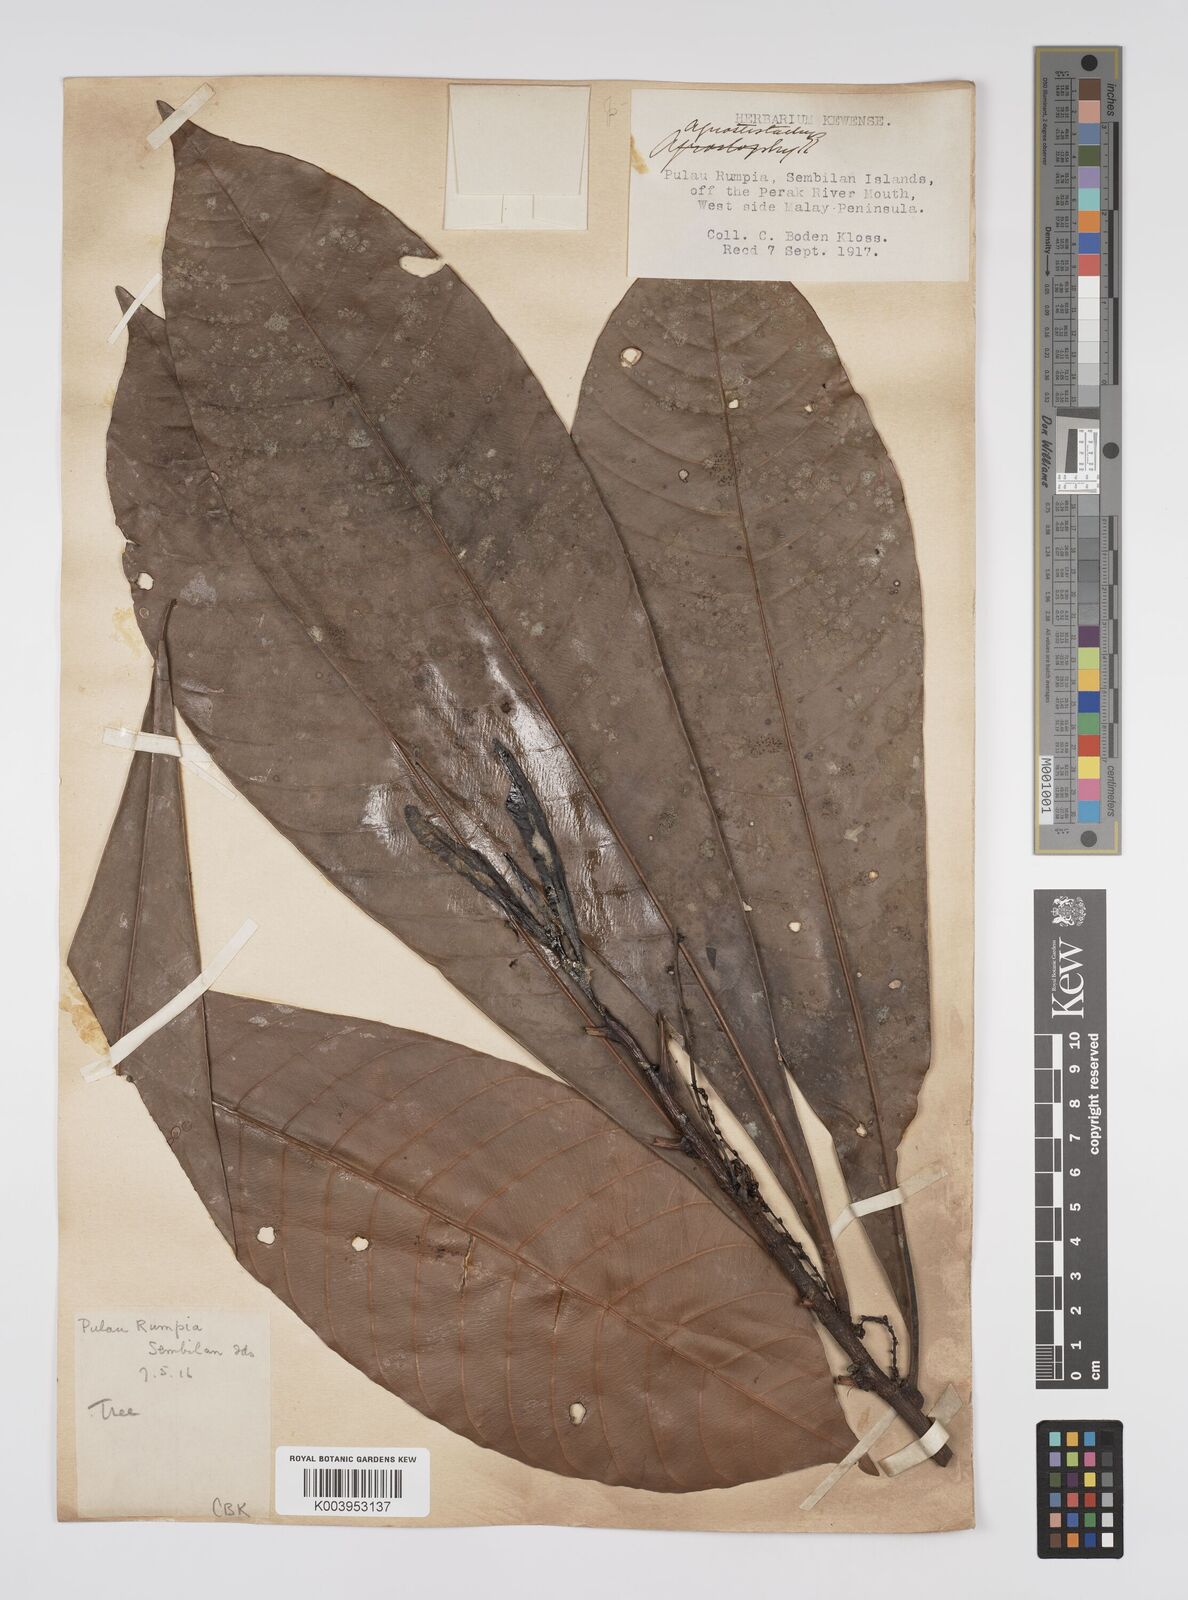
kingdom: Plantae
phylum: Tracheophyta
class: Magnoliopsida
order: Malpighiales
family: Euphorbiaceae
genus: Agrostistachys
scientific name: Agrostistachys borneensis
